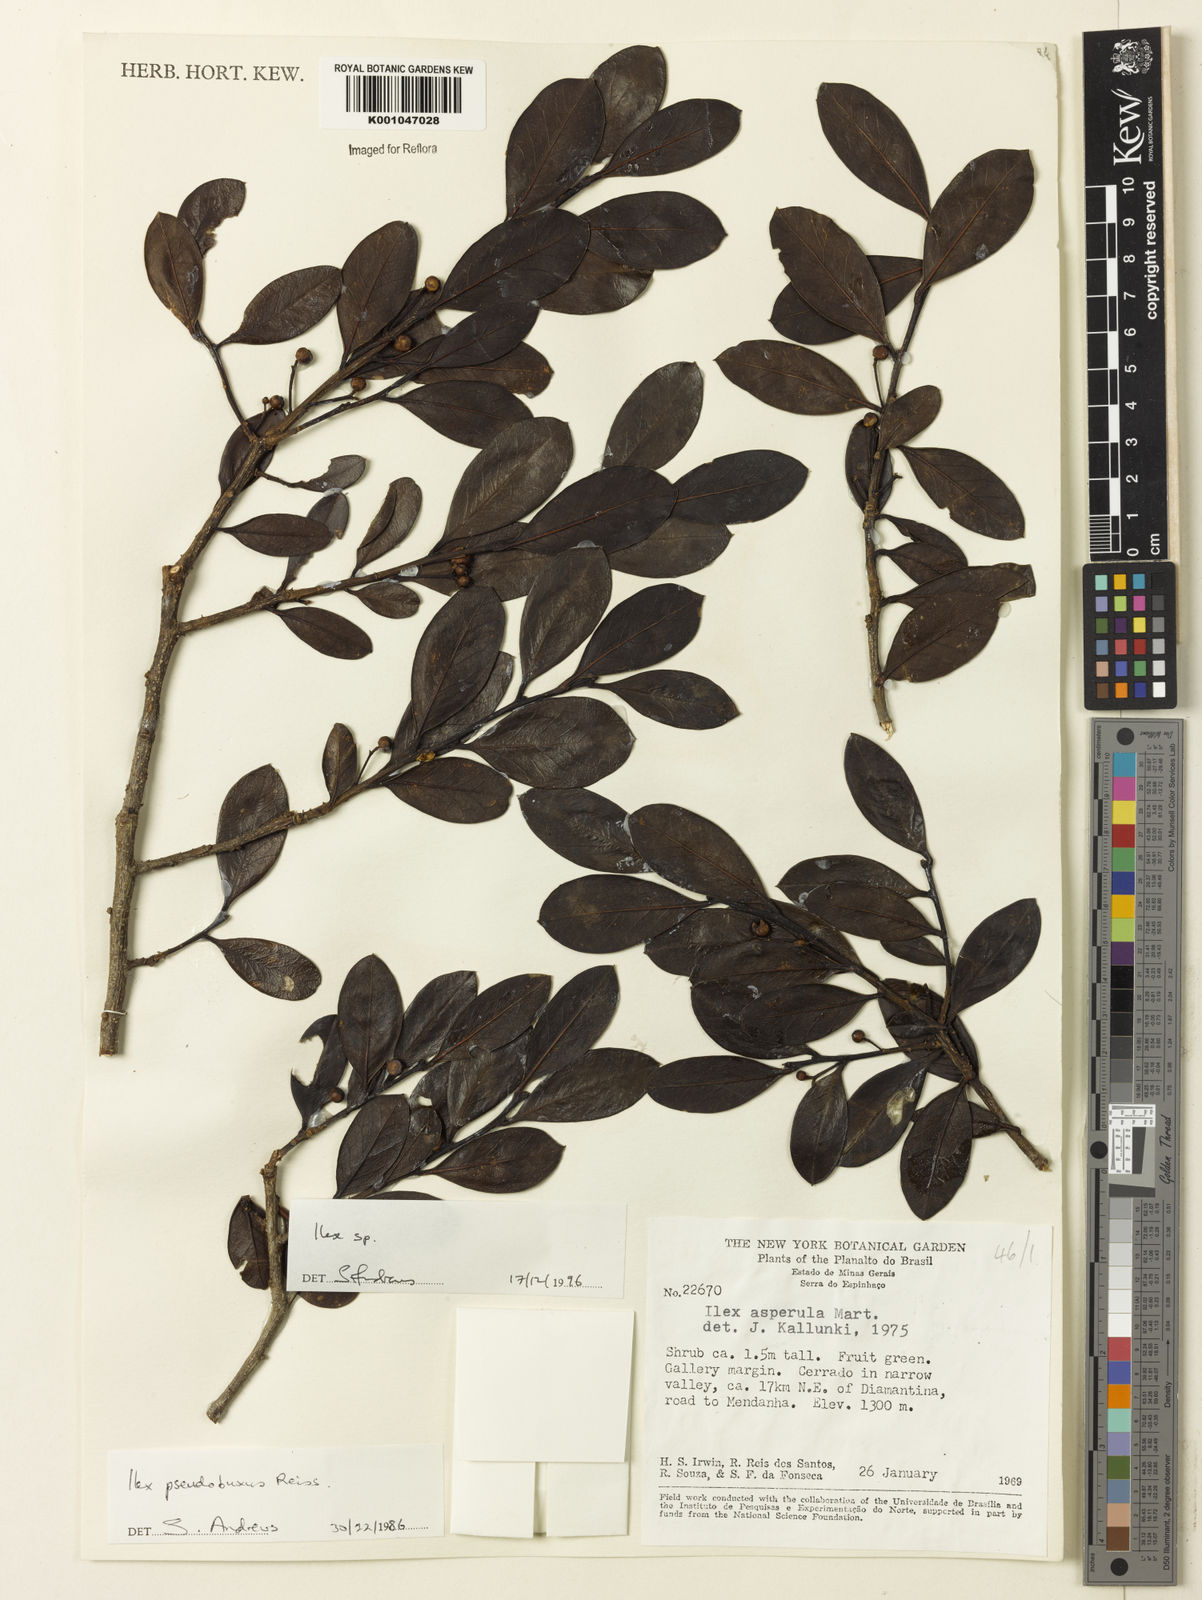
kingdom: Plantae
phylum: Tracheophyta
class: Magnoliopsida
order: Aquifoliales
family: Aquifoliaceae
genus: Ilex
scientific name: Ilex
